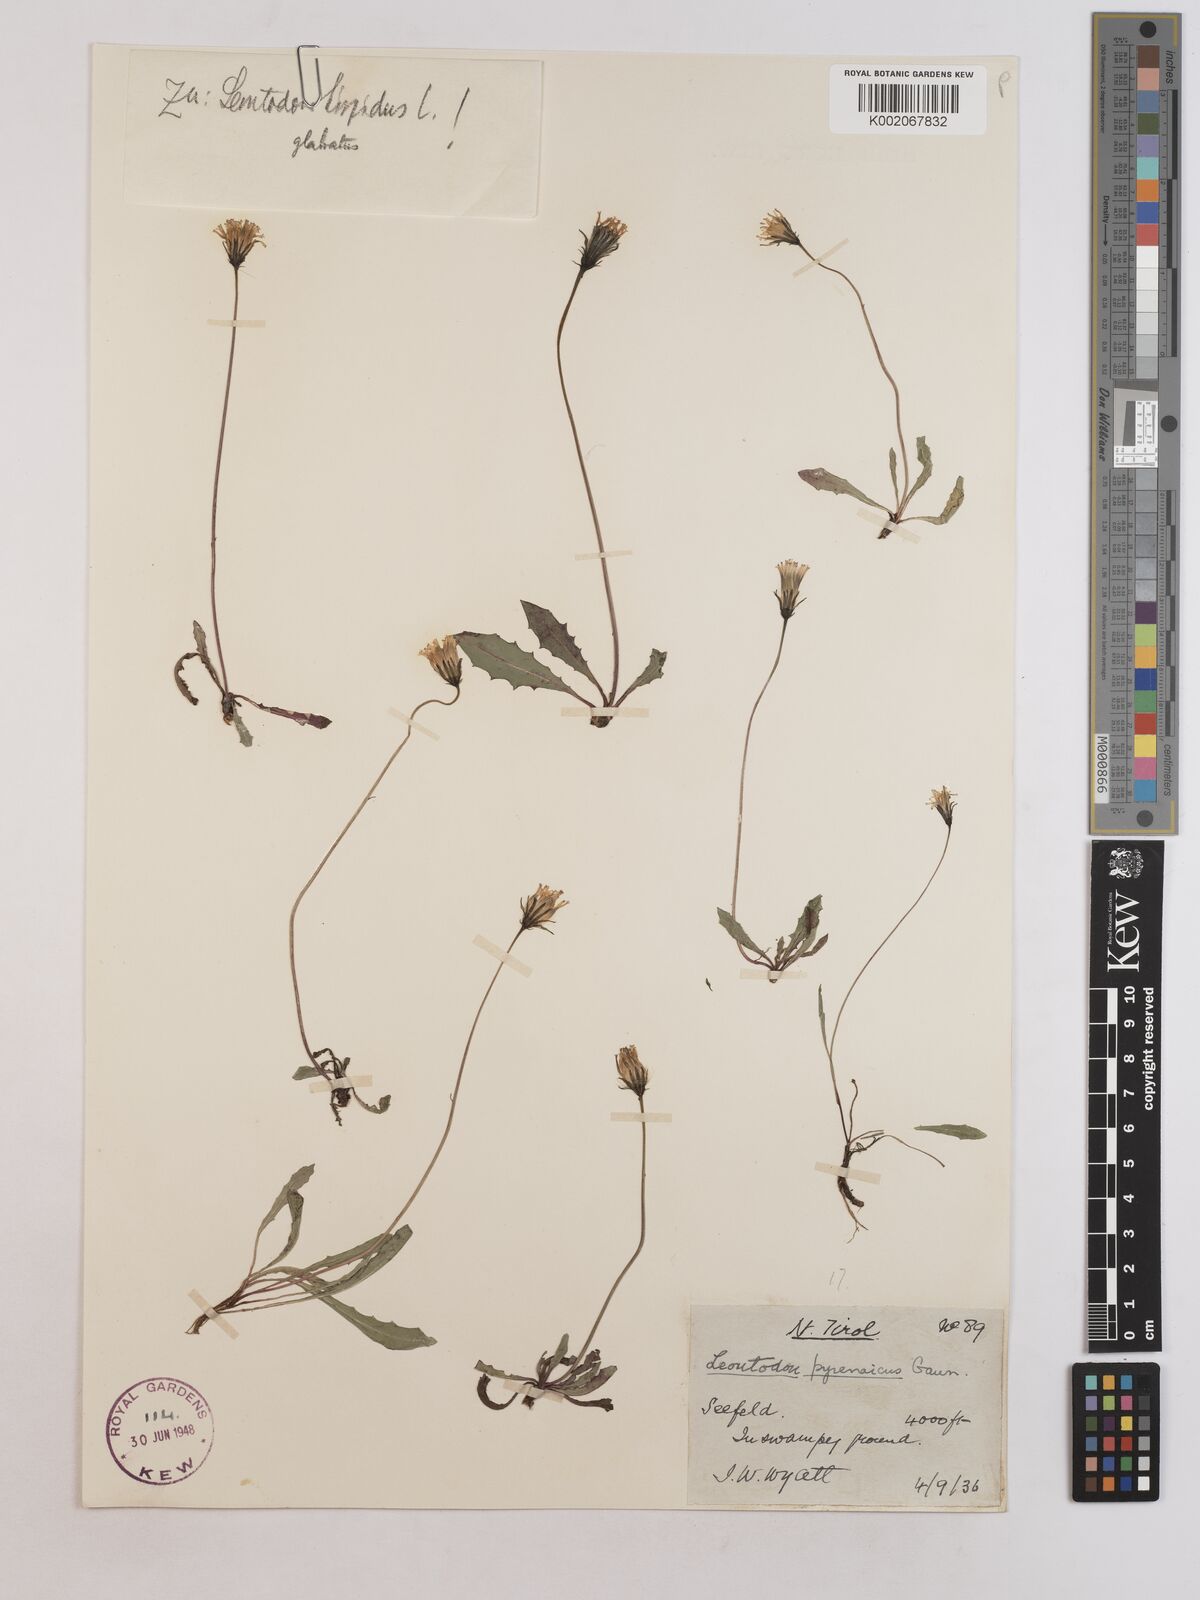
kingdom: Plantae
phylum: Tracheophyta
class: Magnoliopsida
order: Asterales
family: Asteraceae
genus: Leontodon
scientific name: Leontodon hispidus
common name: Rough hawkbit
